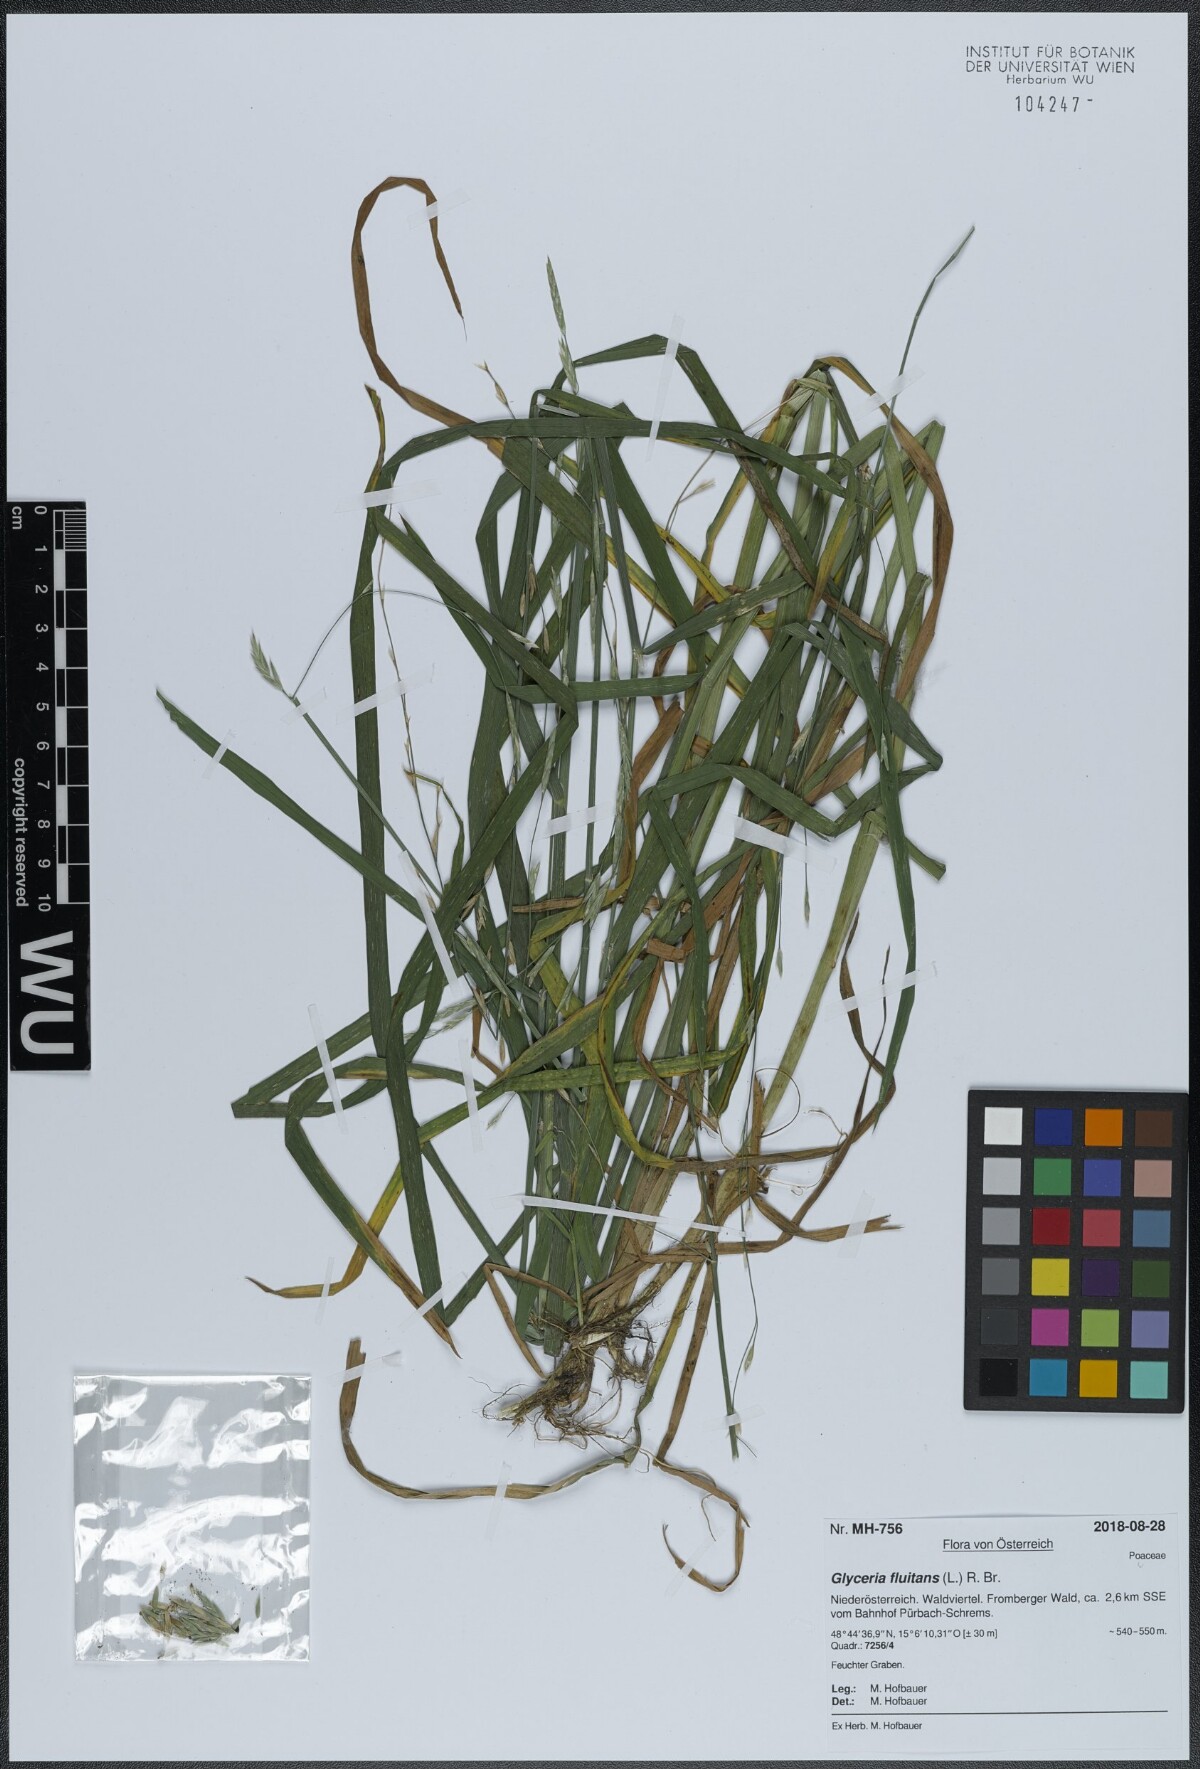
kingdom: Plantae
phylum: Tracheophyta
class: Liliopsida
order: Poales
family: Poaceae
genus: Glyceria
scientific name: Glyceria fluitans
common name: Floating sweet-grass
